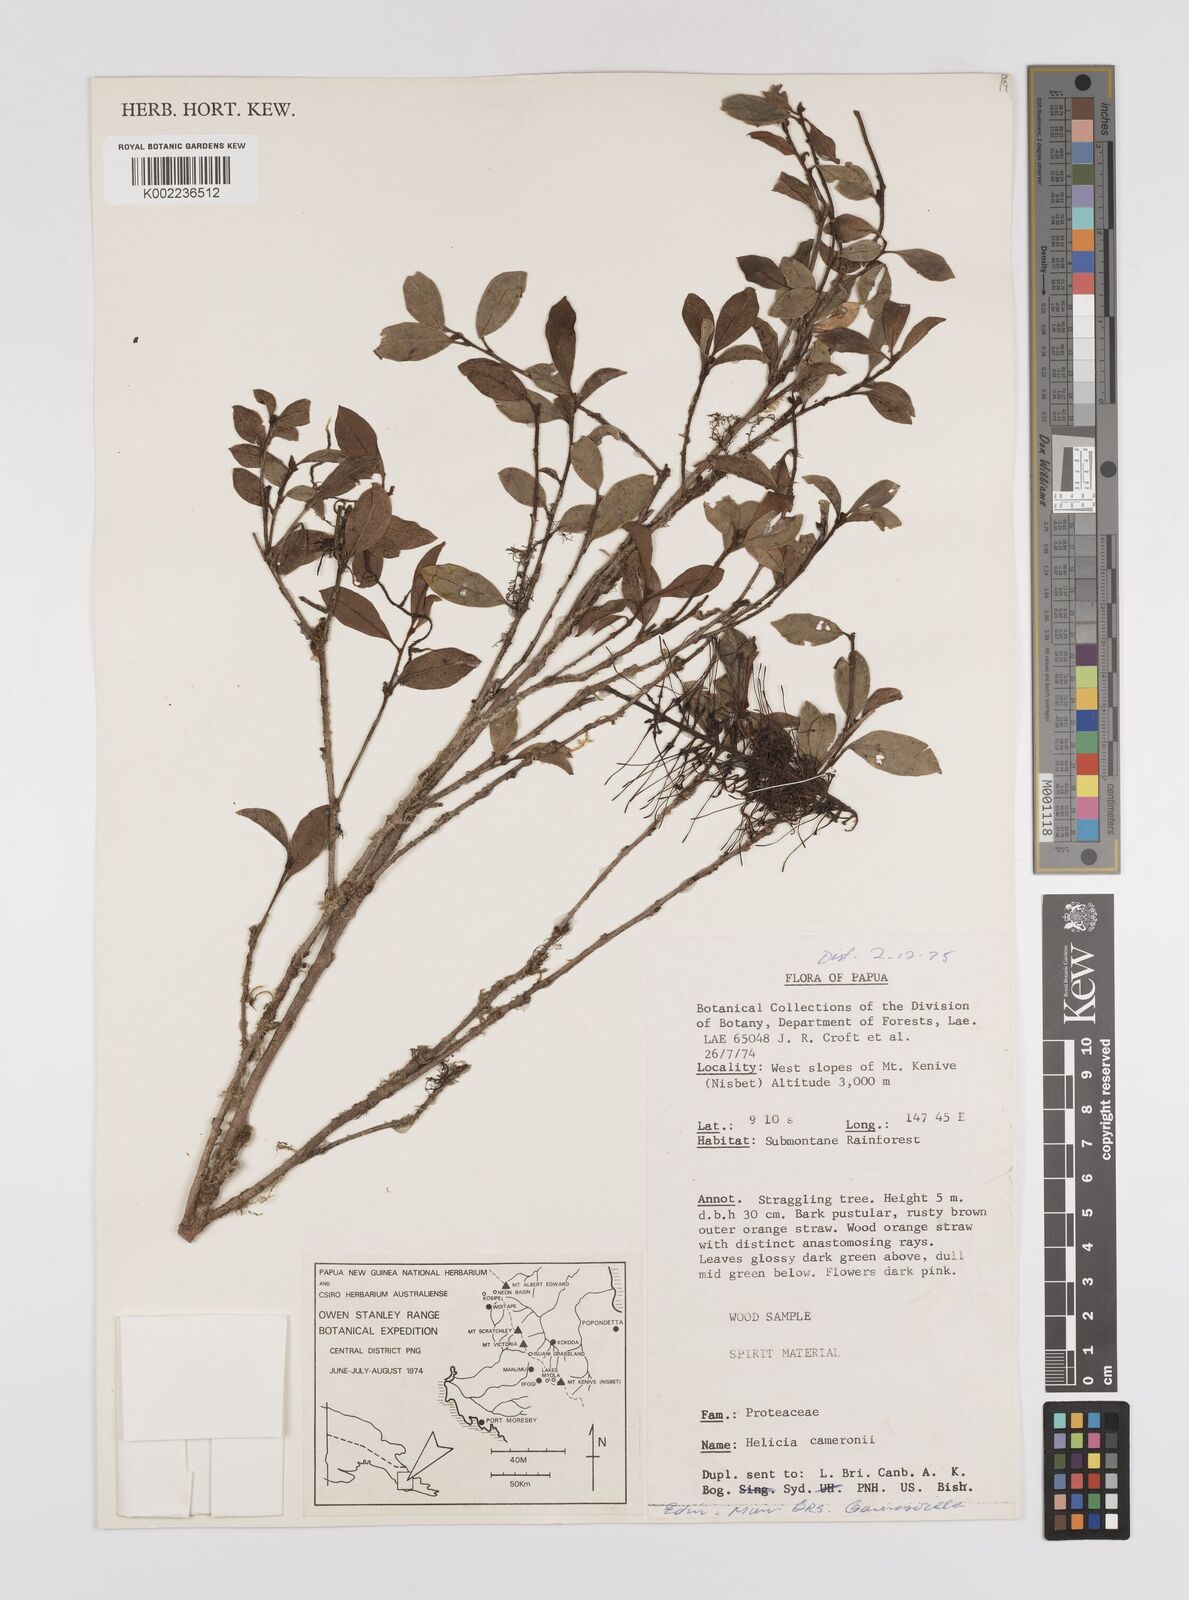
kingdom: Plantae
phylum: Tracheophyta
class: Magnoliopsida
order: Proteales
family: Proteaceae
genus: Helicia
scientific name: Helicia cameronii
